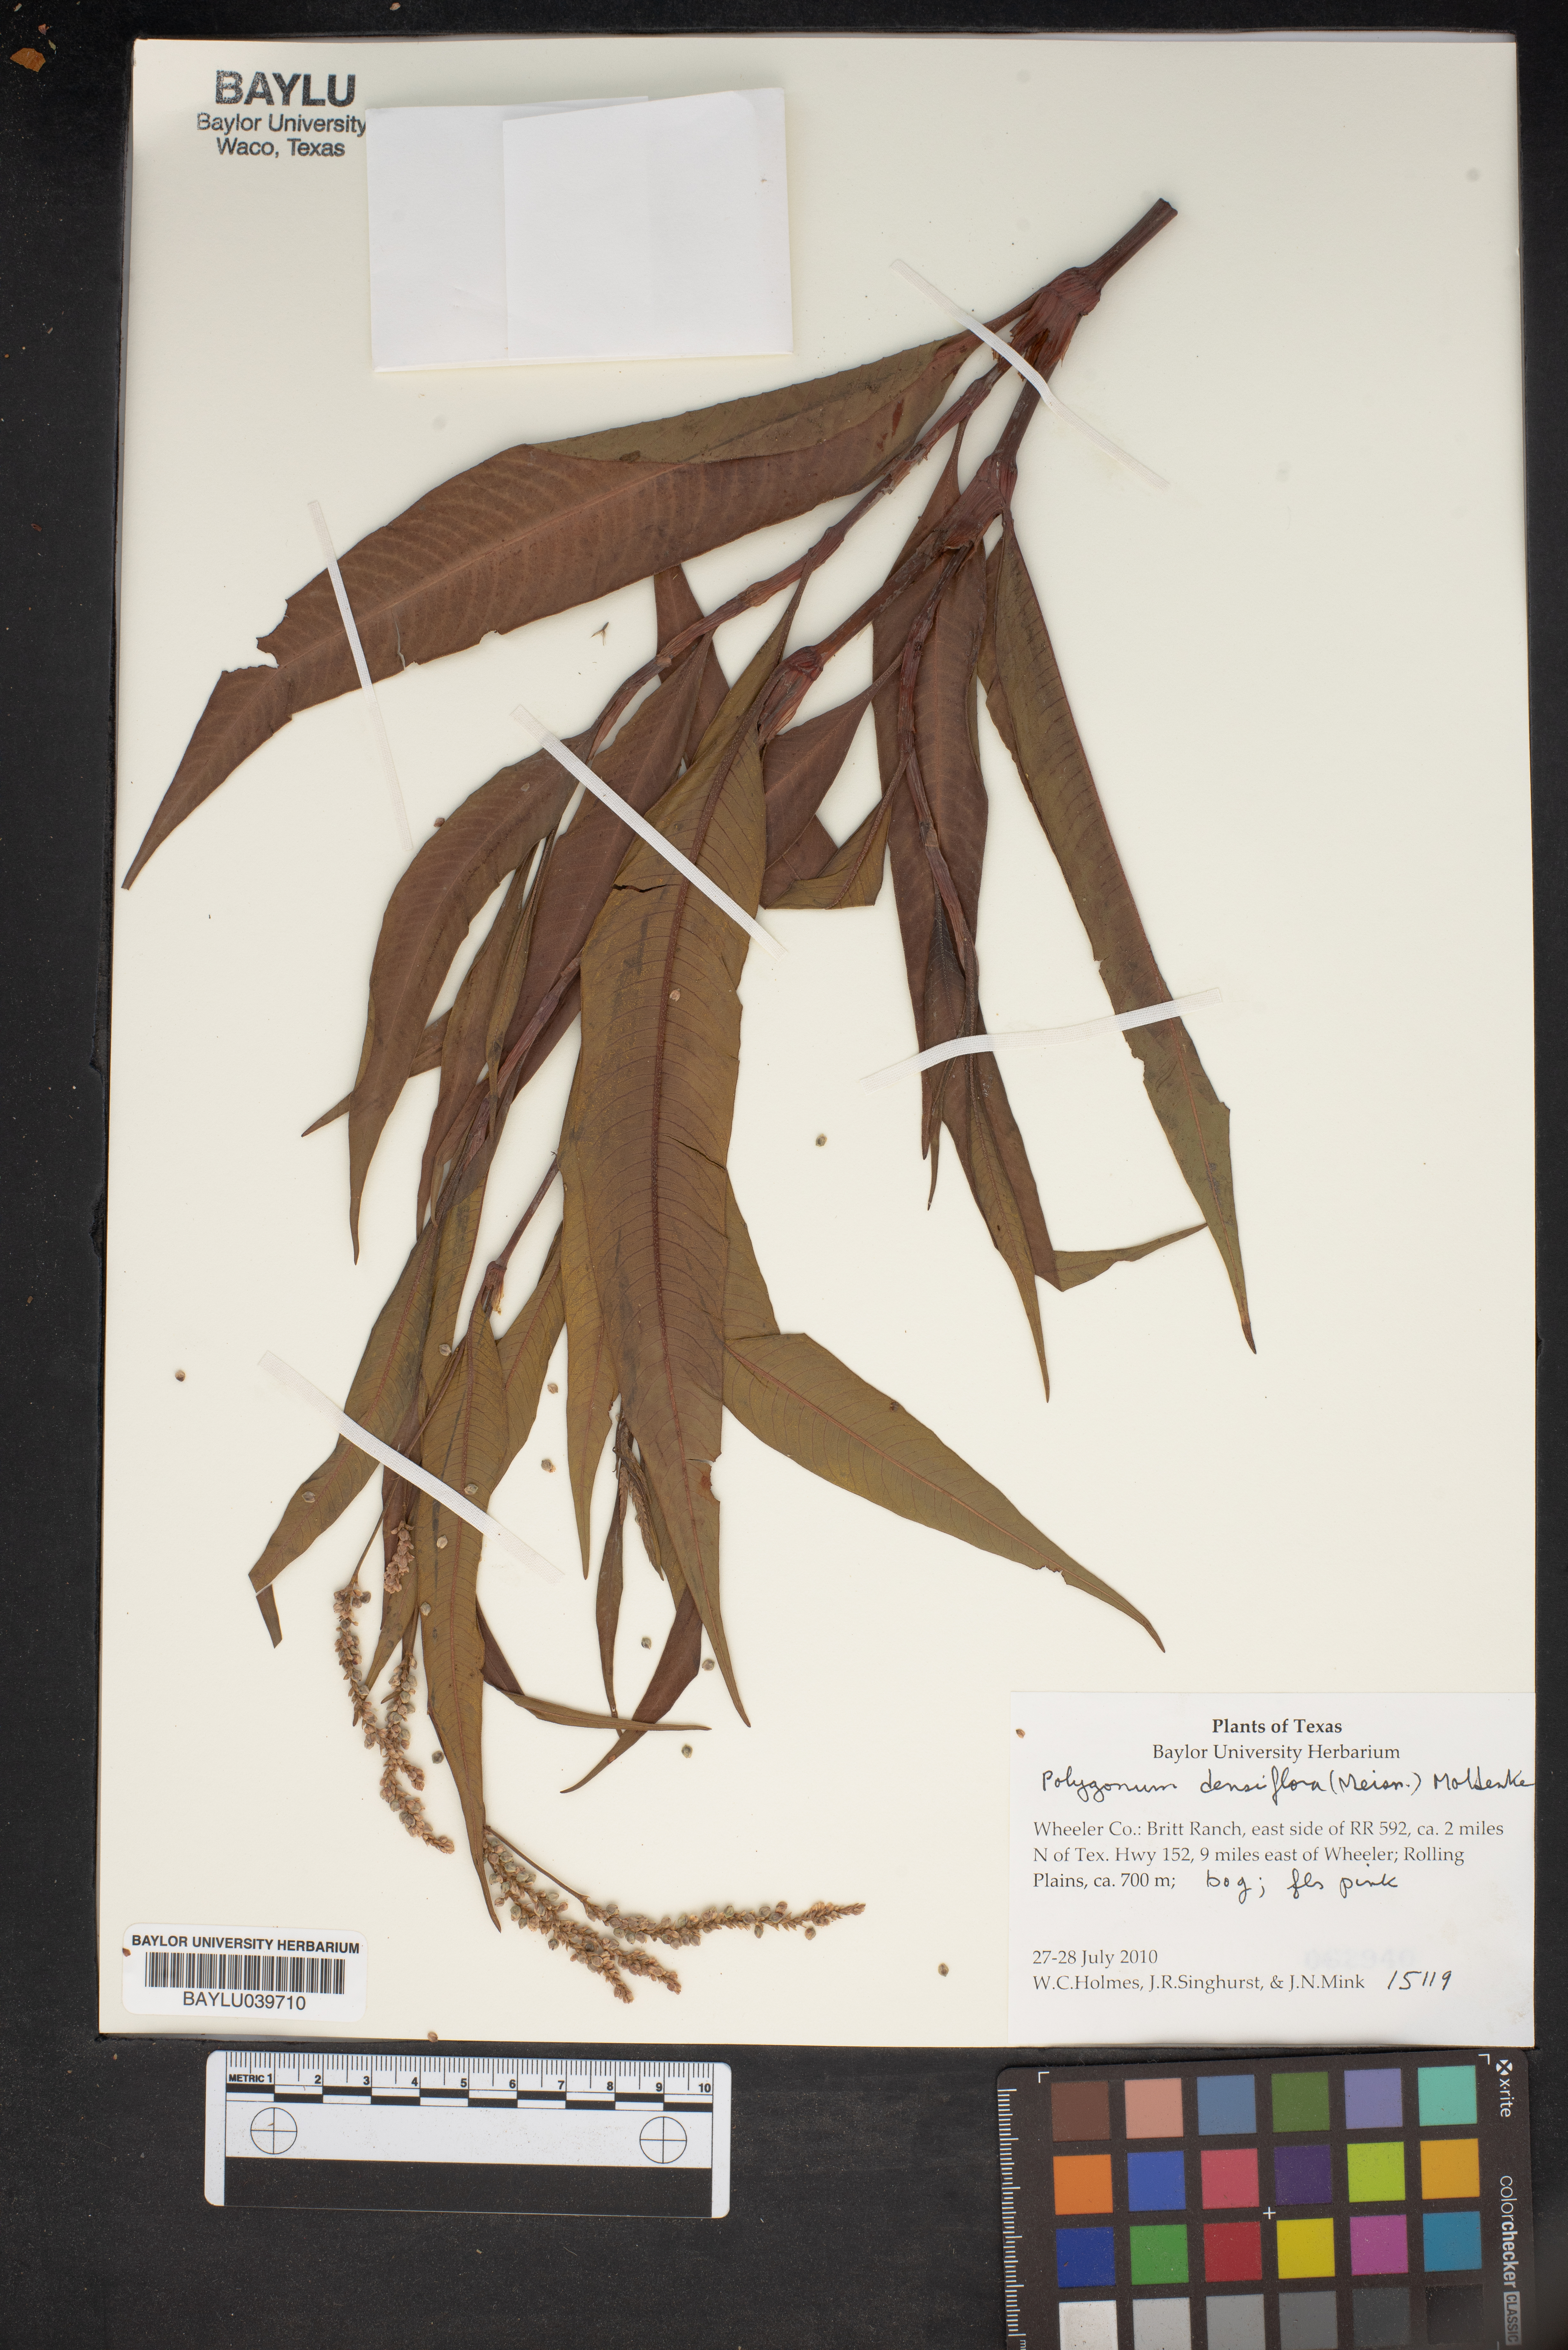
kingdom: Plantae
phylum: Tracheophyta
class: Magnoliopsida
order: Caryophyllales
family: Polygonaceae
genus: Persicaria
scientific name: Persicaria glabra
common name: Denseflower knotweed
